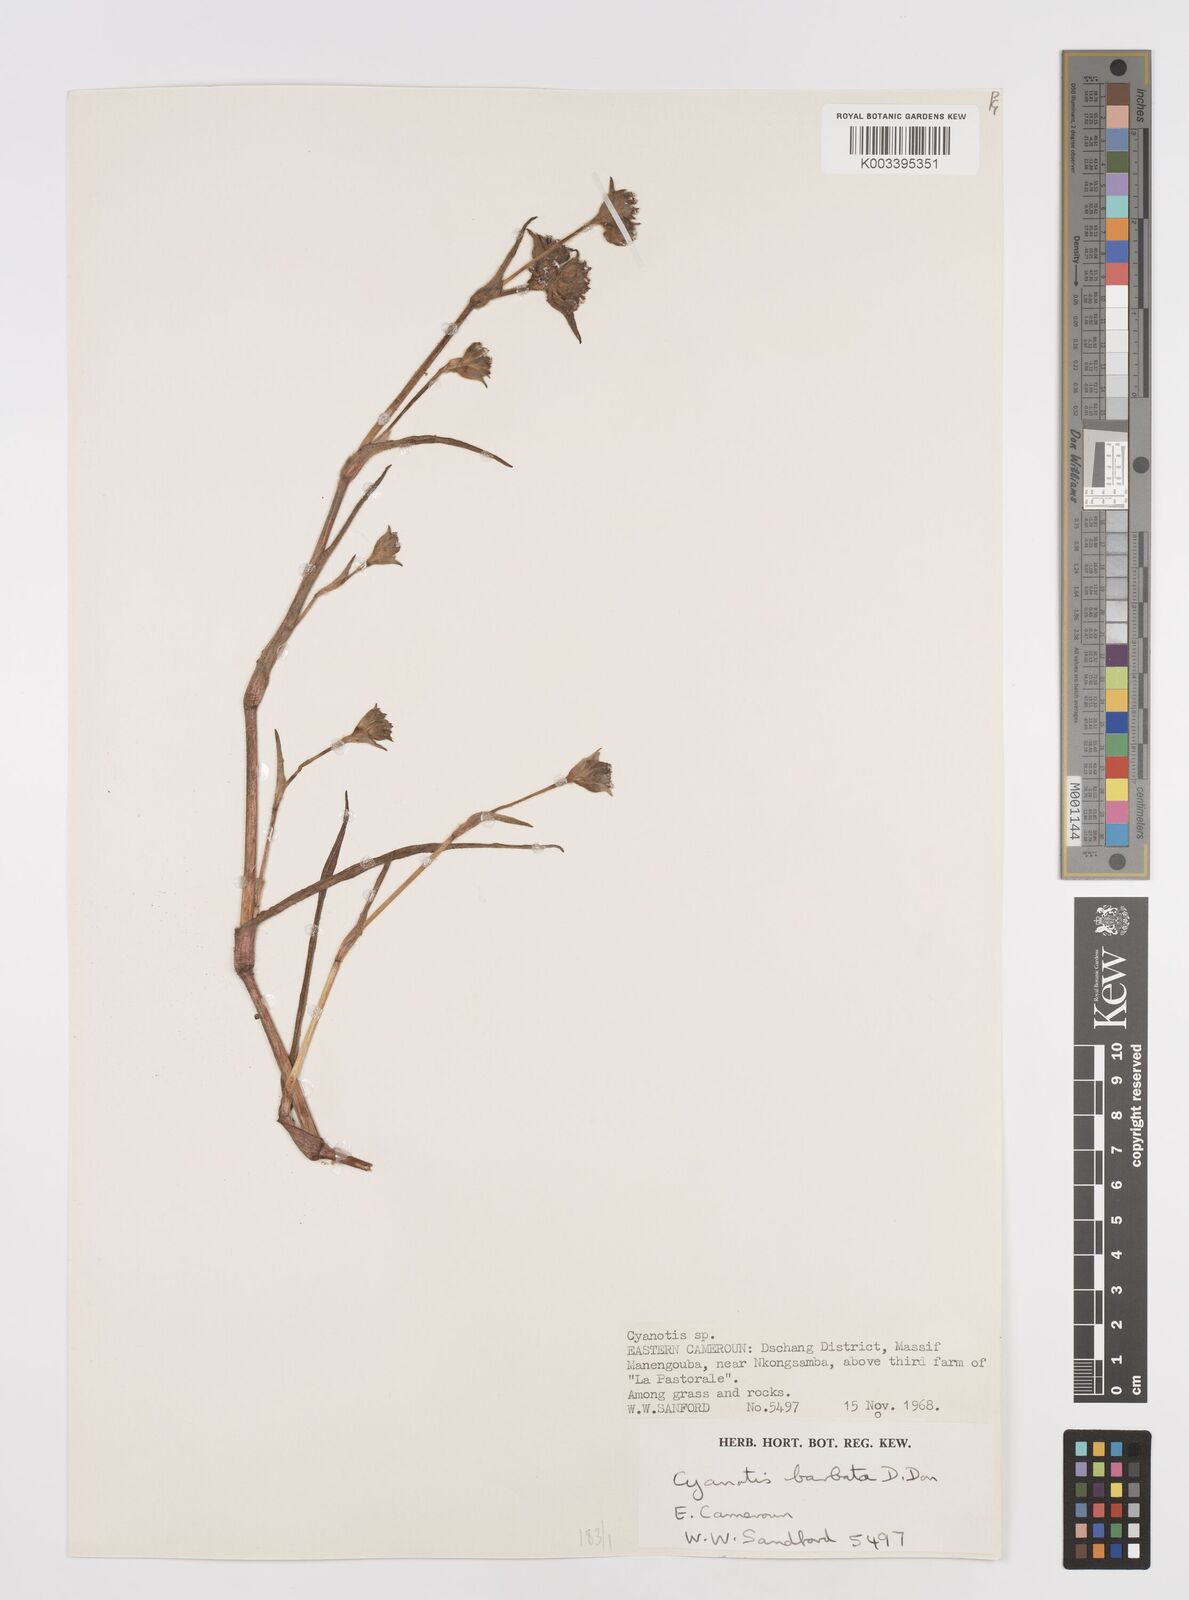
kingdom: Plantae
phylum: Tracheophyta
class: Liliopsida
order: Commelinales
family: Commelinaceae
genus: Cyanotis
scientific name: Cyanotis vaga
